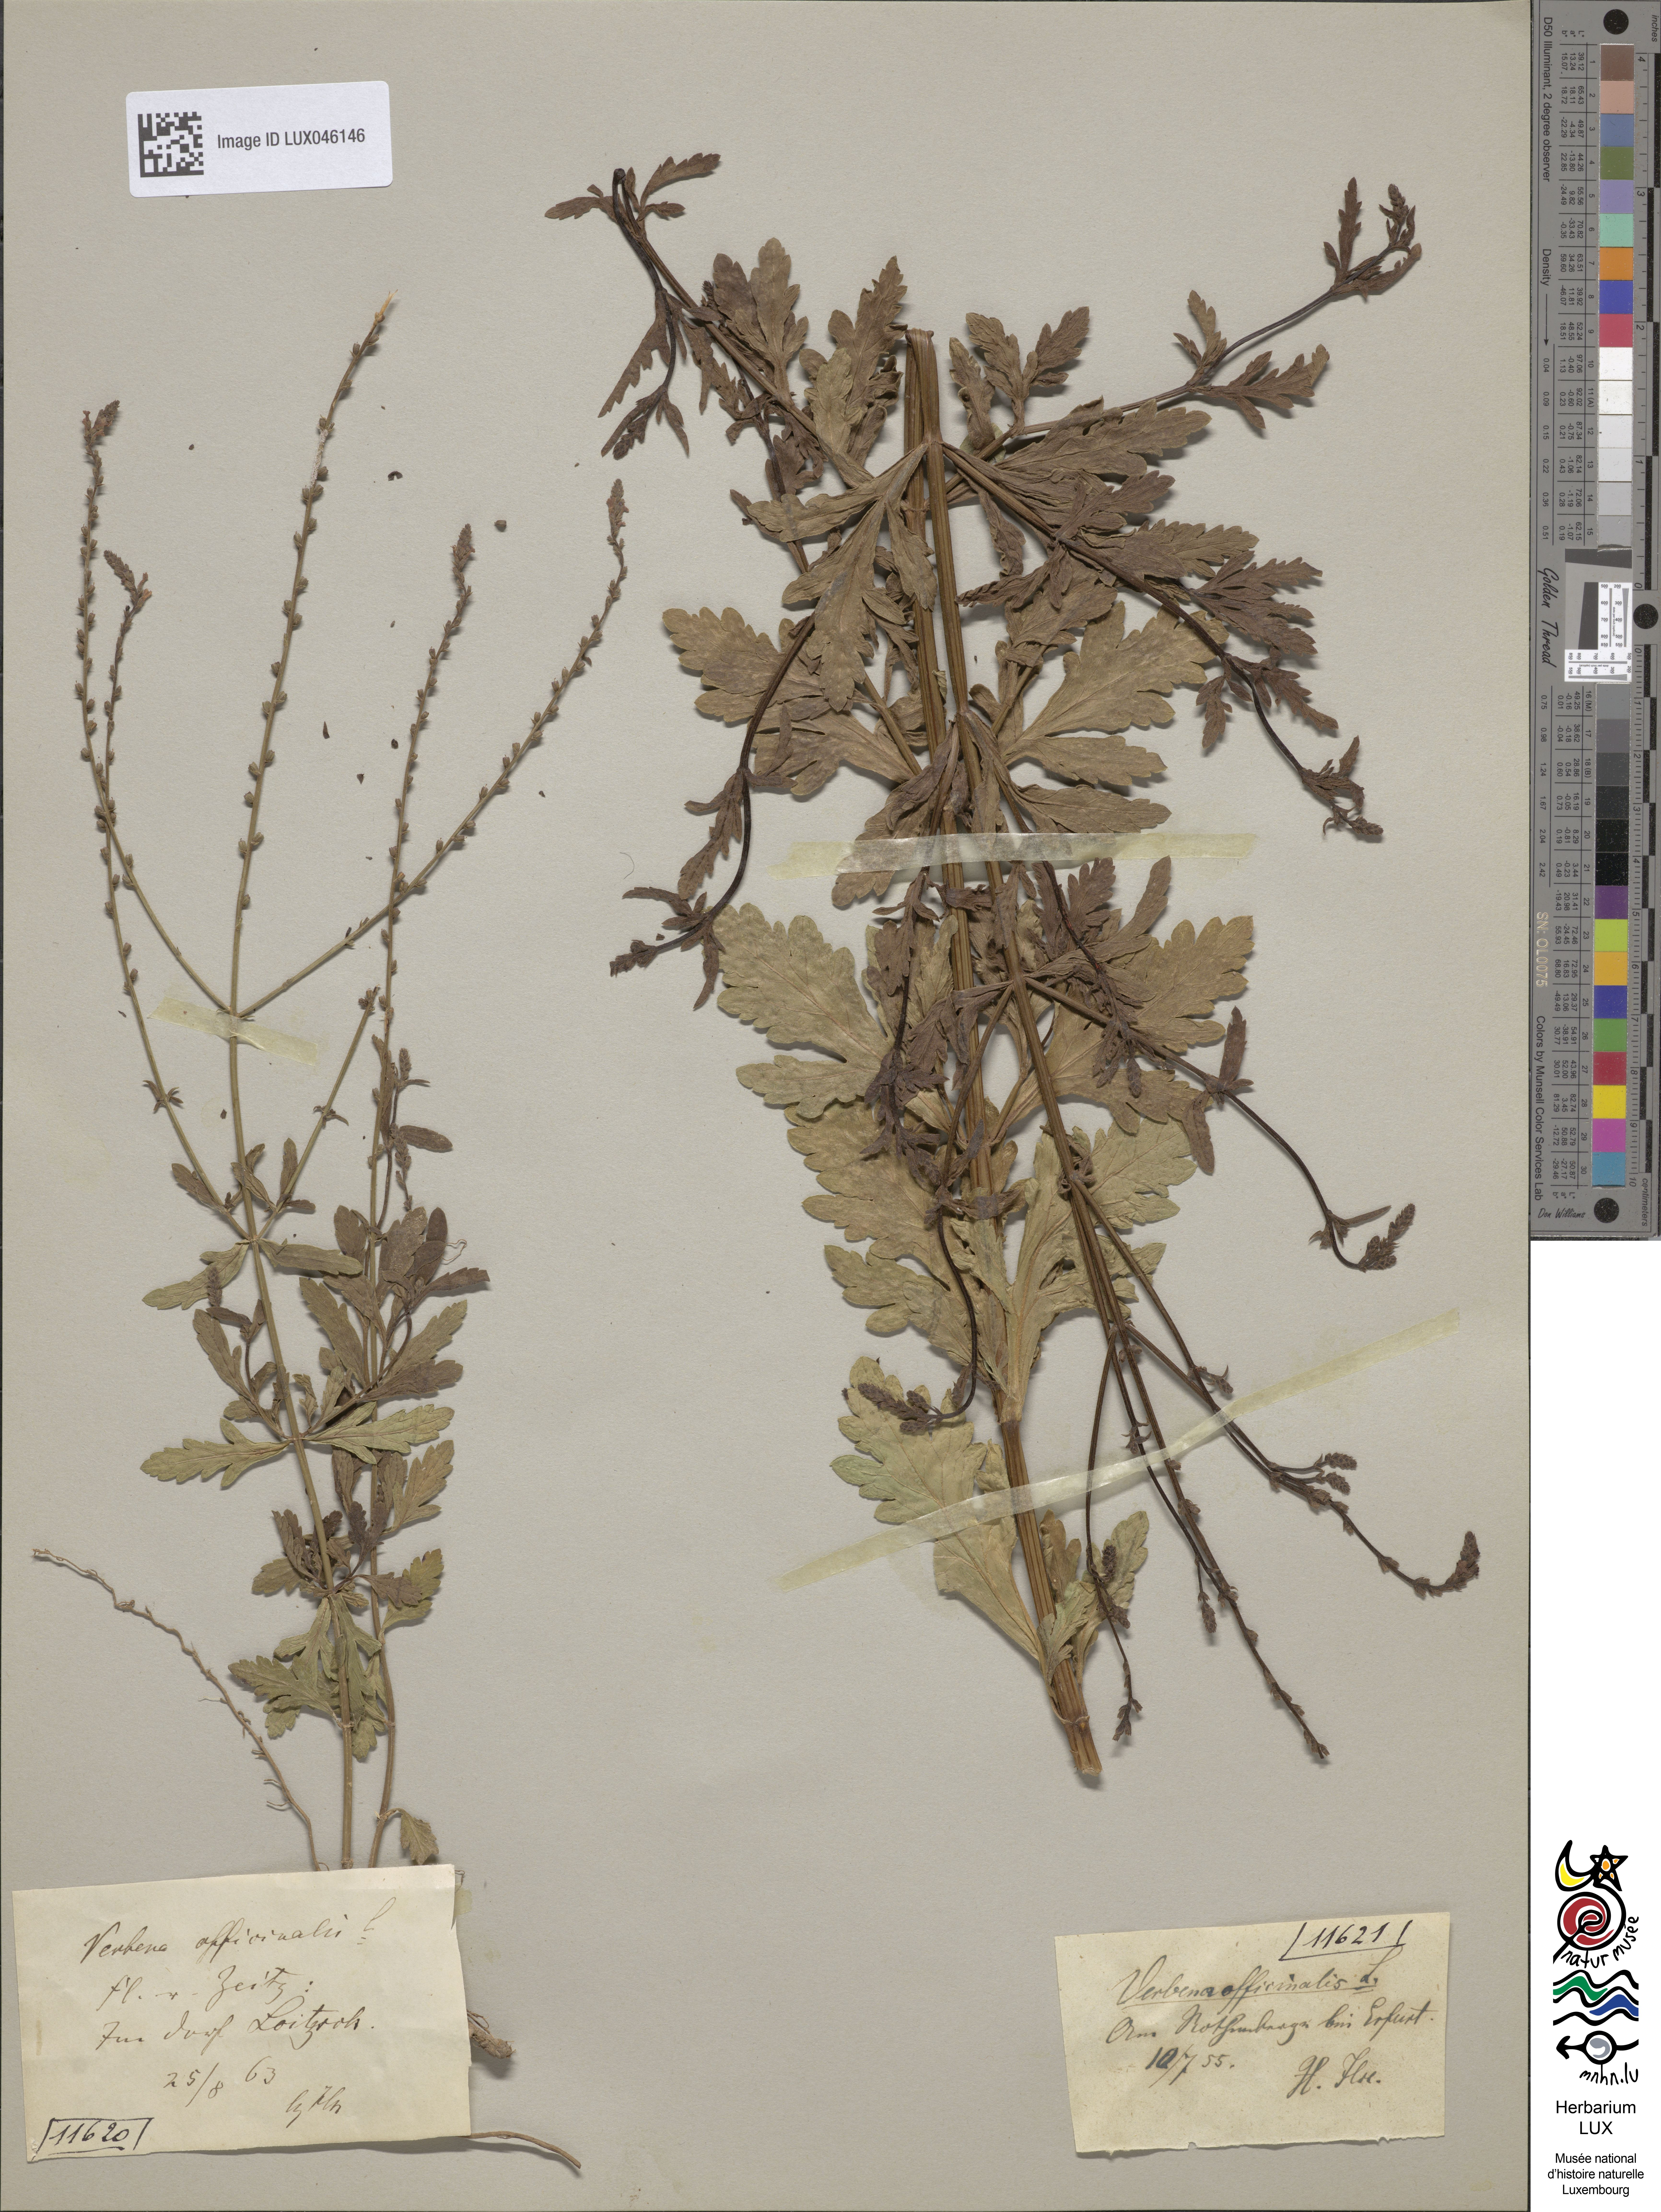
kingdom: Plantae
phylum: Tracheophyta
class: Magnoliopsida
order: Lamiales
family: Verbenaceae
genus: Verbena
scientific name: Verbena officinalis
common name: Vervain
